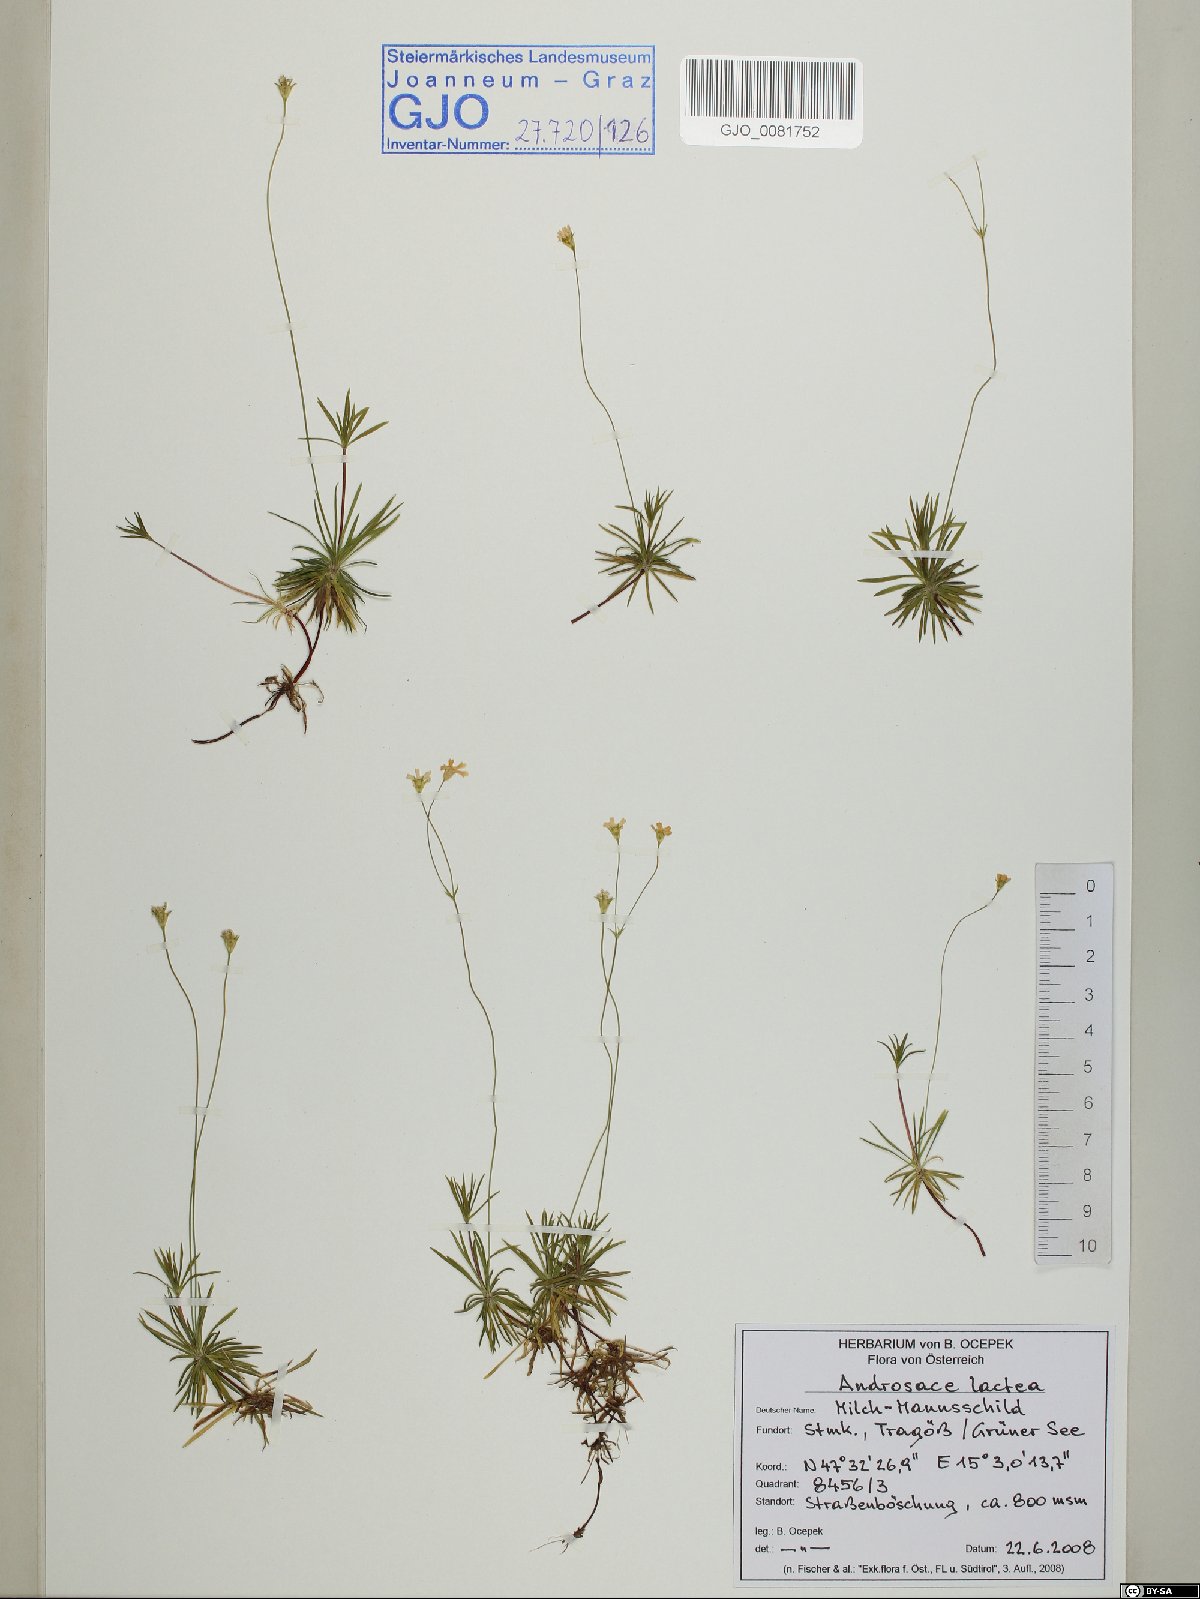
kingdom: Plantae
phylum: Tracheophyta
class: Magnoliopsida
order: Ericales
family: Primulaceae
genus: Androsace
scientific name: Androsace lactea
